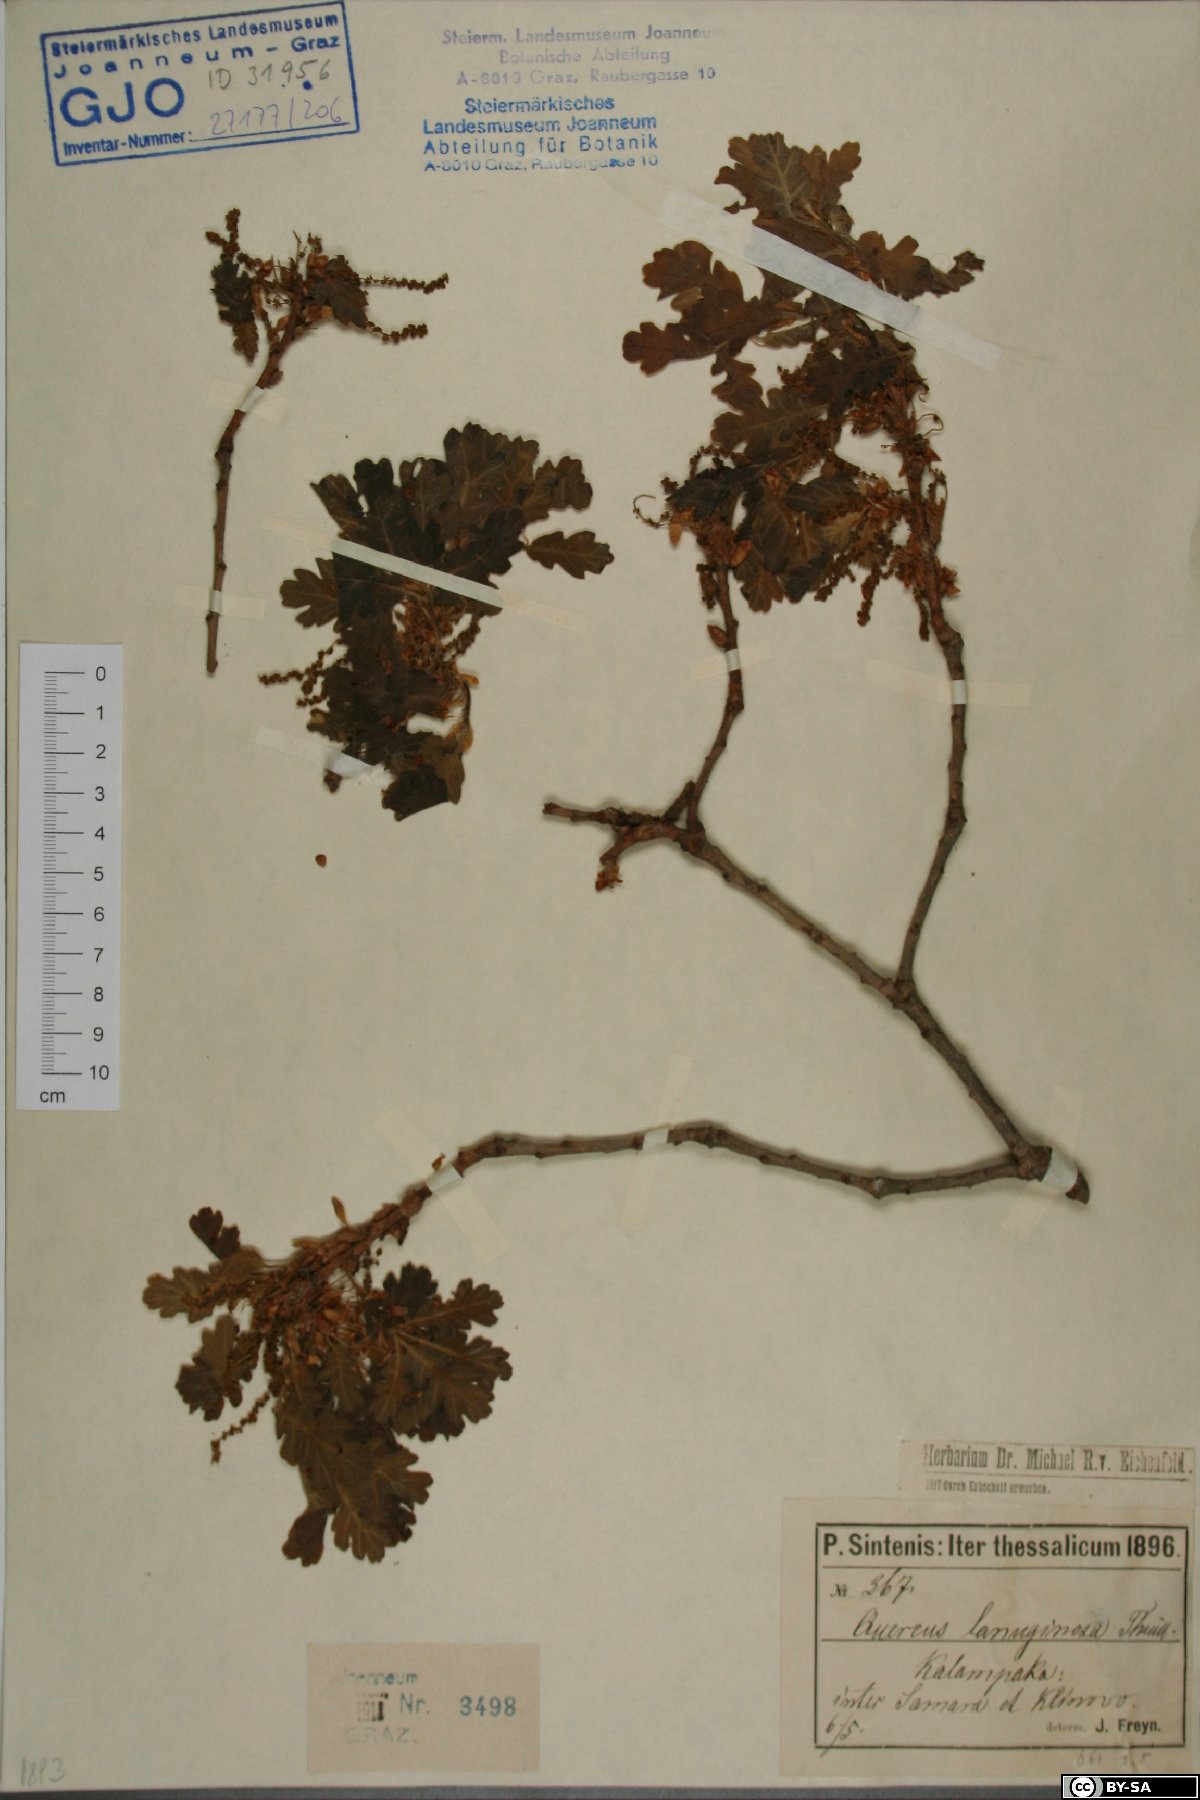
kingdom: Plantae
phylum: Tracheophyta
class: Magnoliopsida
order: Fagales
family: Fagaceae
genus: Quercus
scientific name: Quercus pubescens
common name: Downy oak
